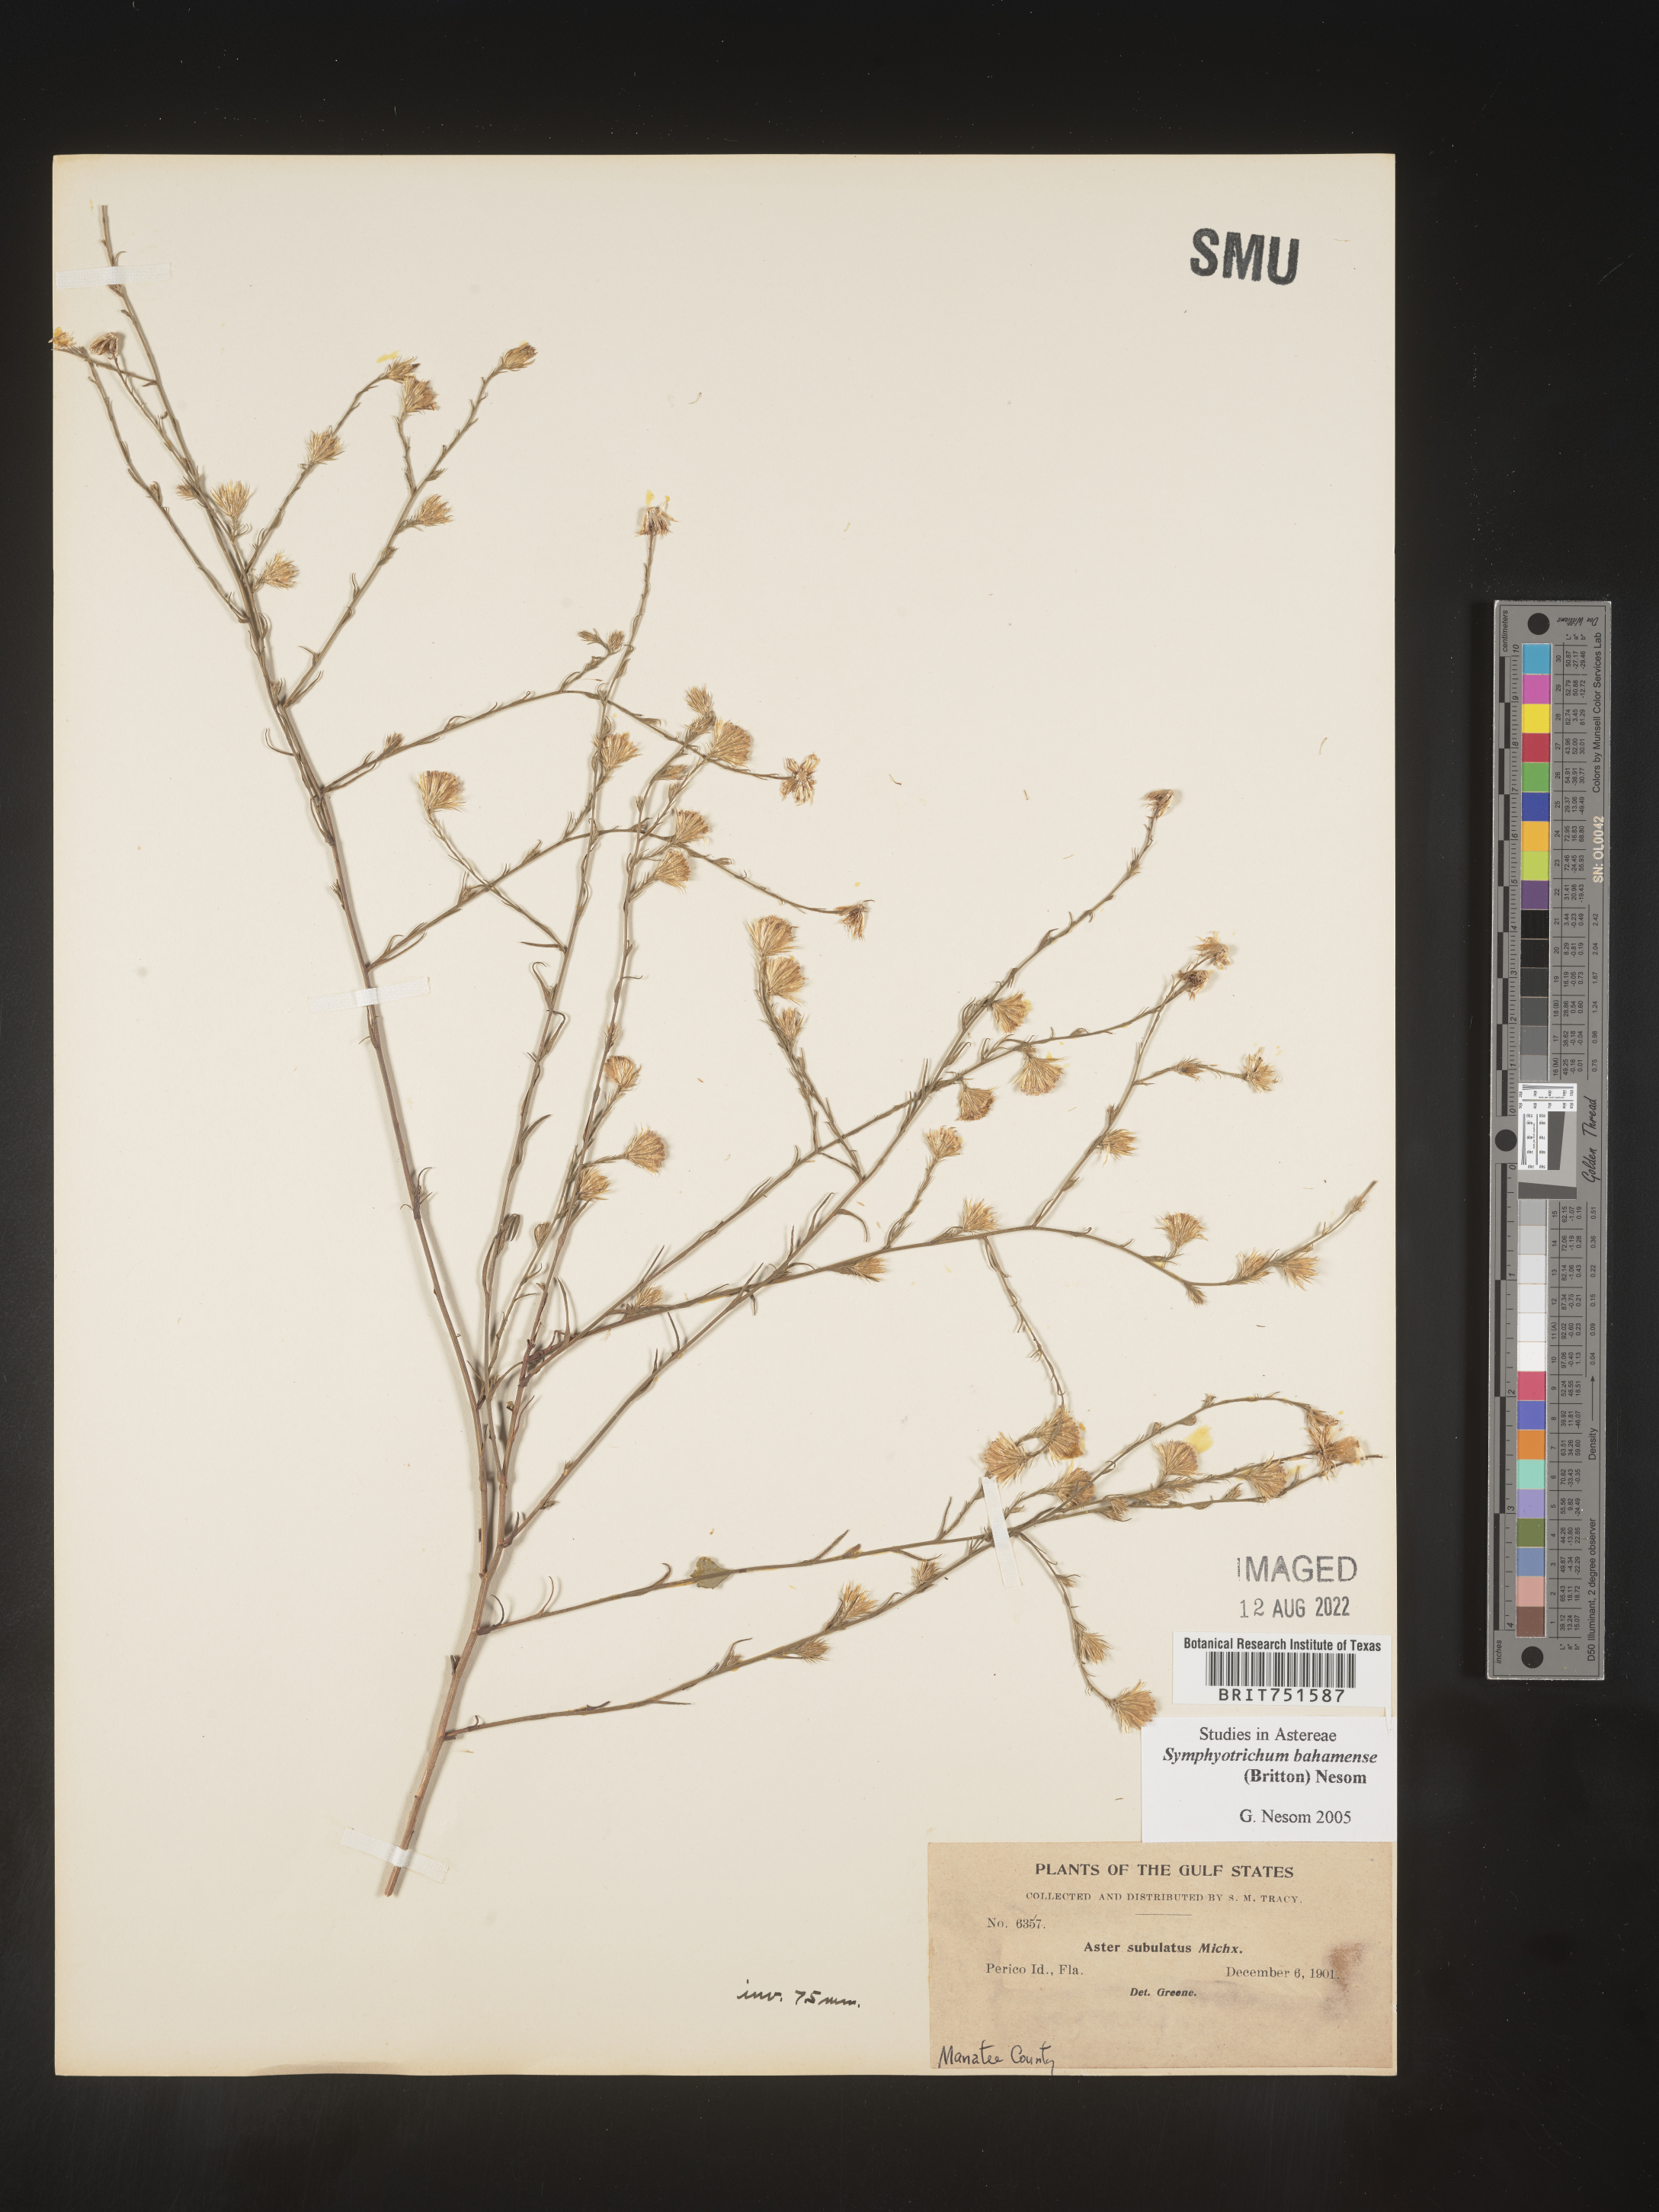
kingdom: Plantae
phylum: Tracheophyta
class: Magnoliopsida
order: Asterales
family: Asteraceae
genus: Symphyotrichum
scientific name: Symphyotrichum subulatum
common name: Annual saltmarsh aster
